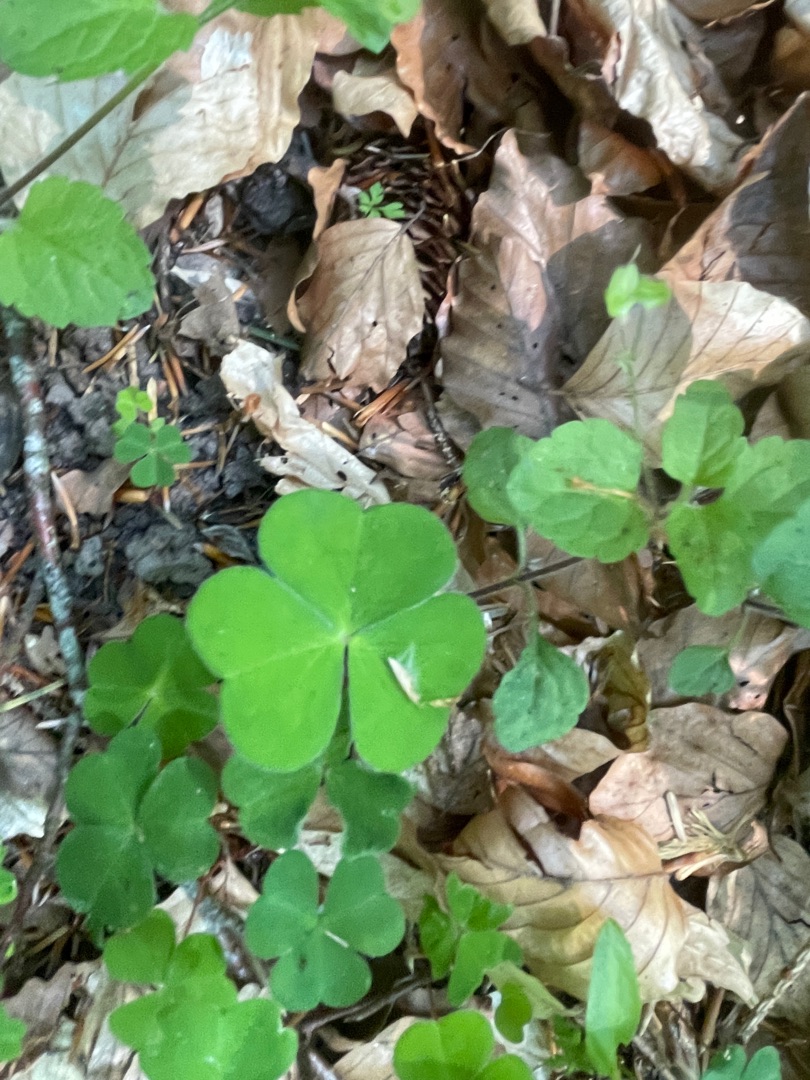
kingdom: Plantae
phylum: Tracheophyta
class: Magnoliopsida
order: Oxalidales
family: Oxalidaceae
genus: Oxalis
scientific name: Oxalis acetosella
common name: Skovsyre
